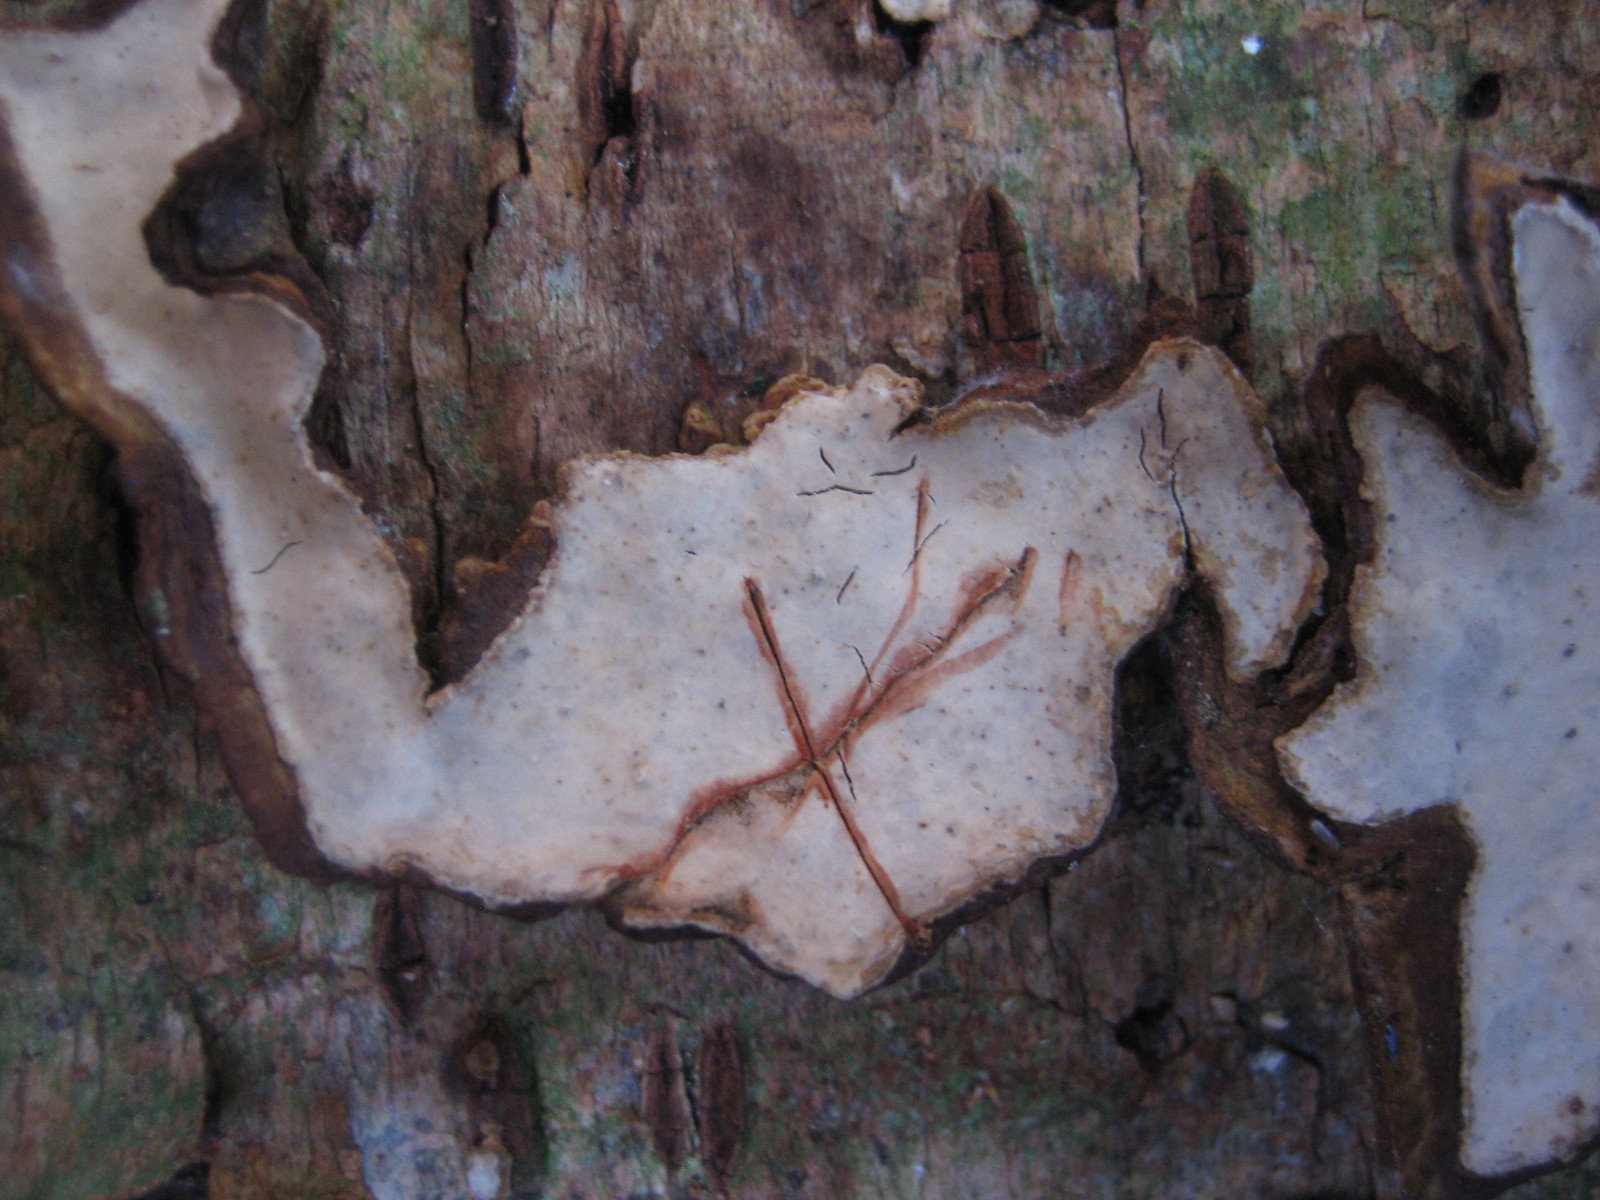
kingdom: Fungi
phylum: Basidiomycota
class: Agaricomycetes
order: Russulales
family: Stereaceae
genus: Stereum
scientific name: Stereum rugosum
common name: rynket lædersvamp
